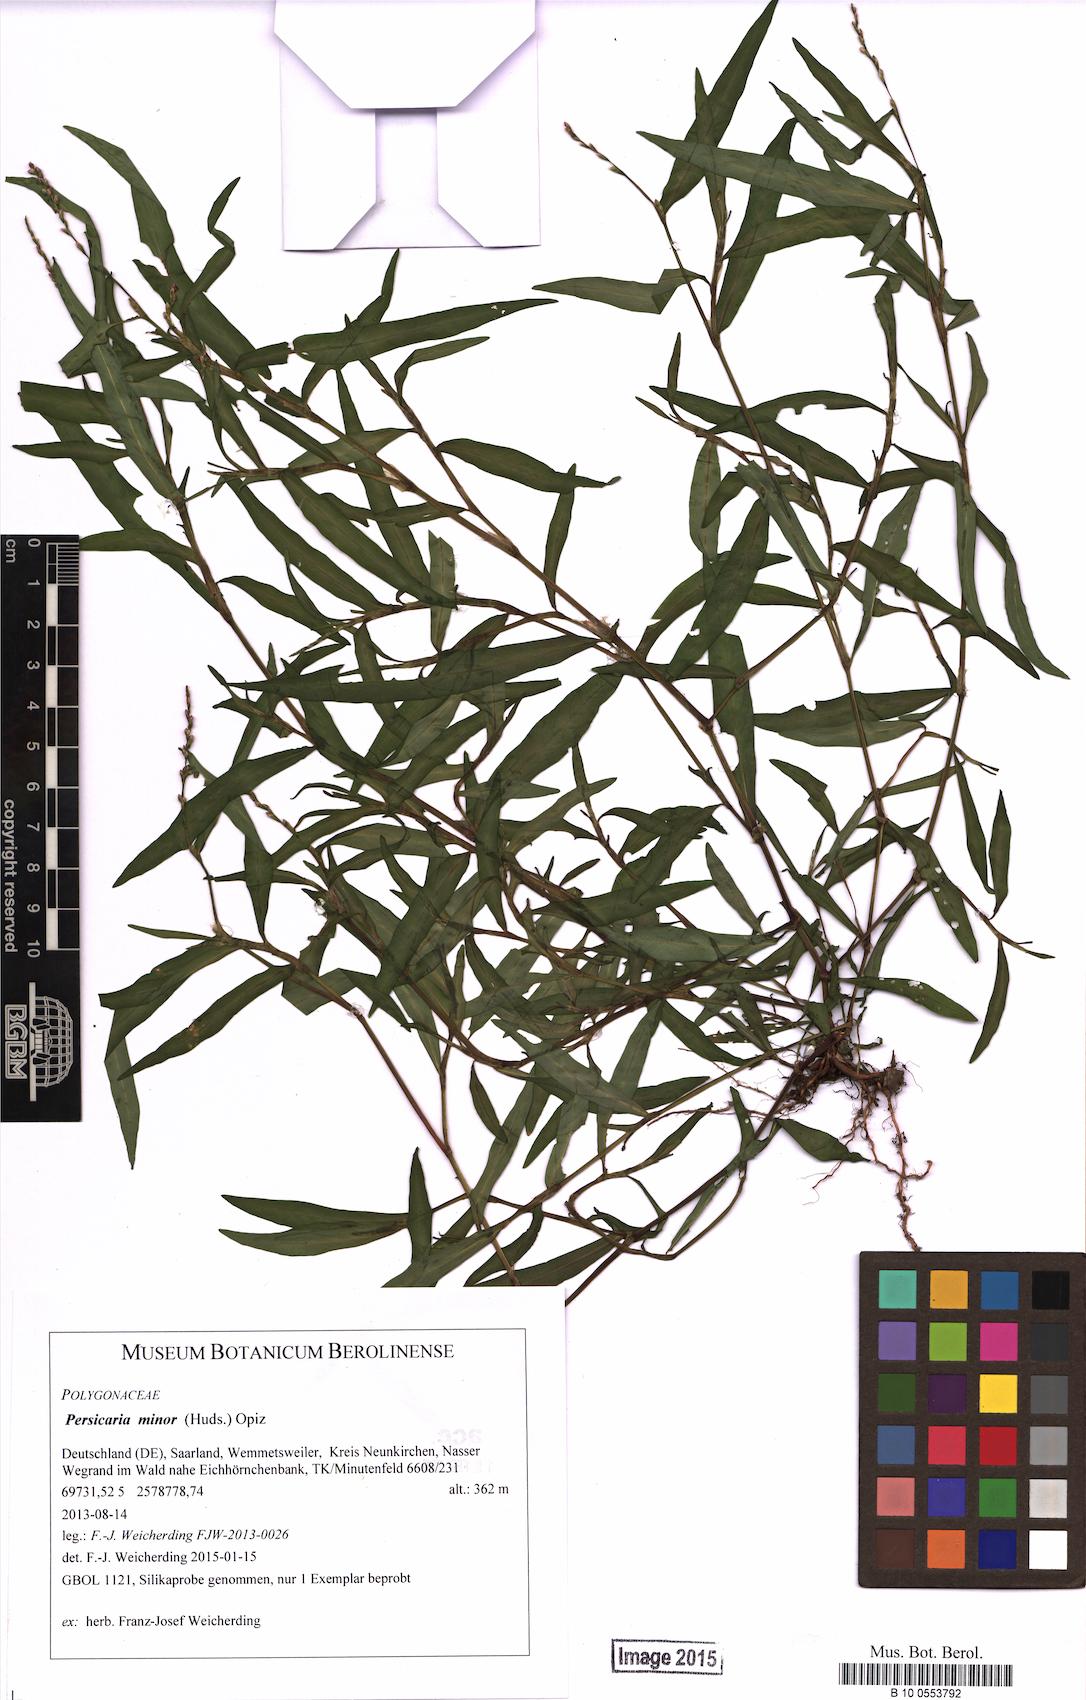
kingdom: Plantae
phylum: Tracheophyta
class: Magnoliopsida
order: Caryophyllales
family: Polygonaceae
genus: Persicaria
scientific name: Persicaria minor
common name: Small water-pepper
